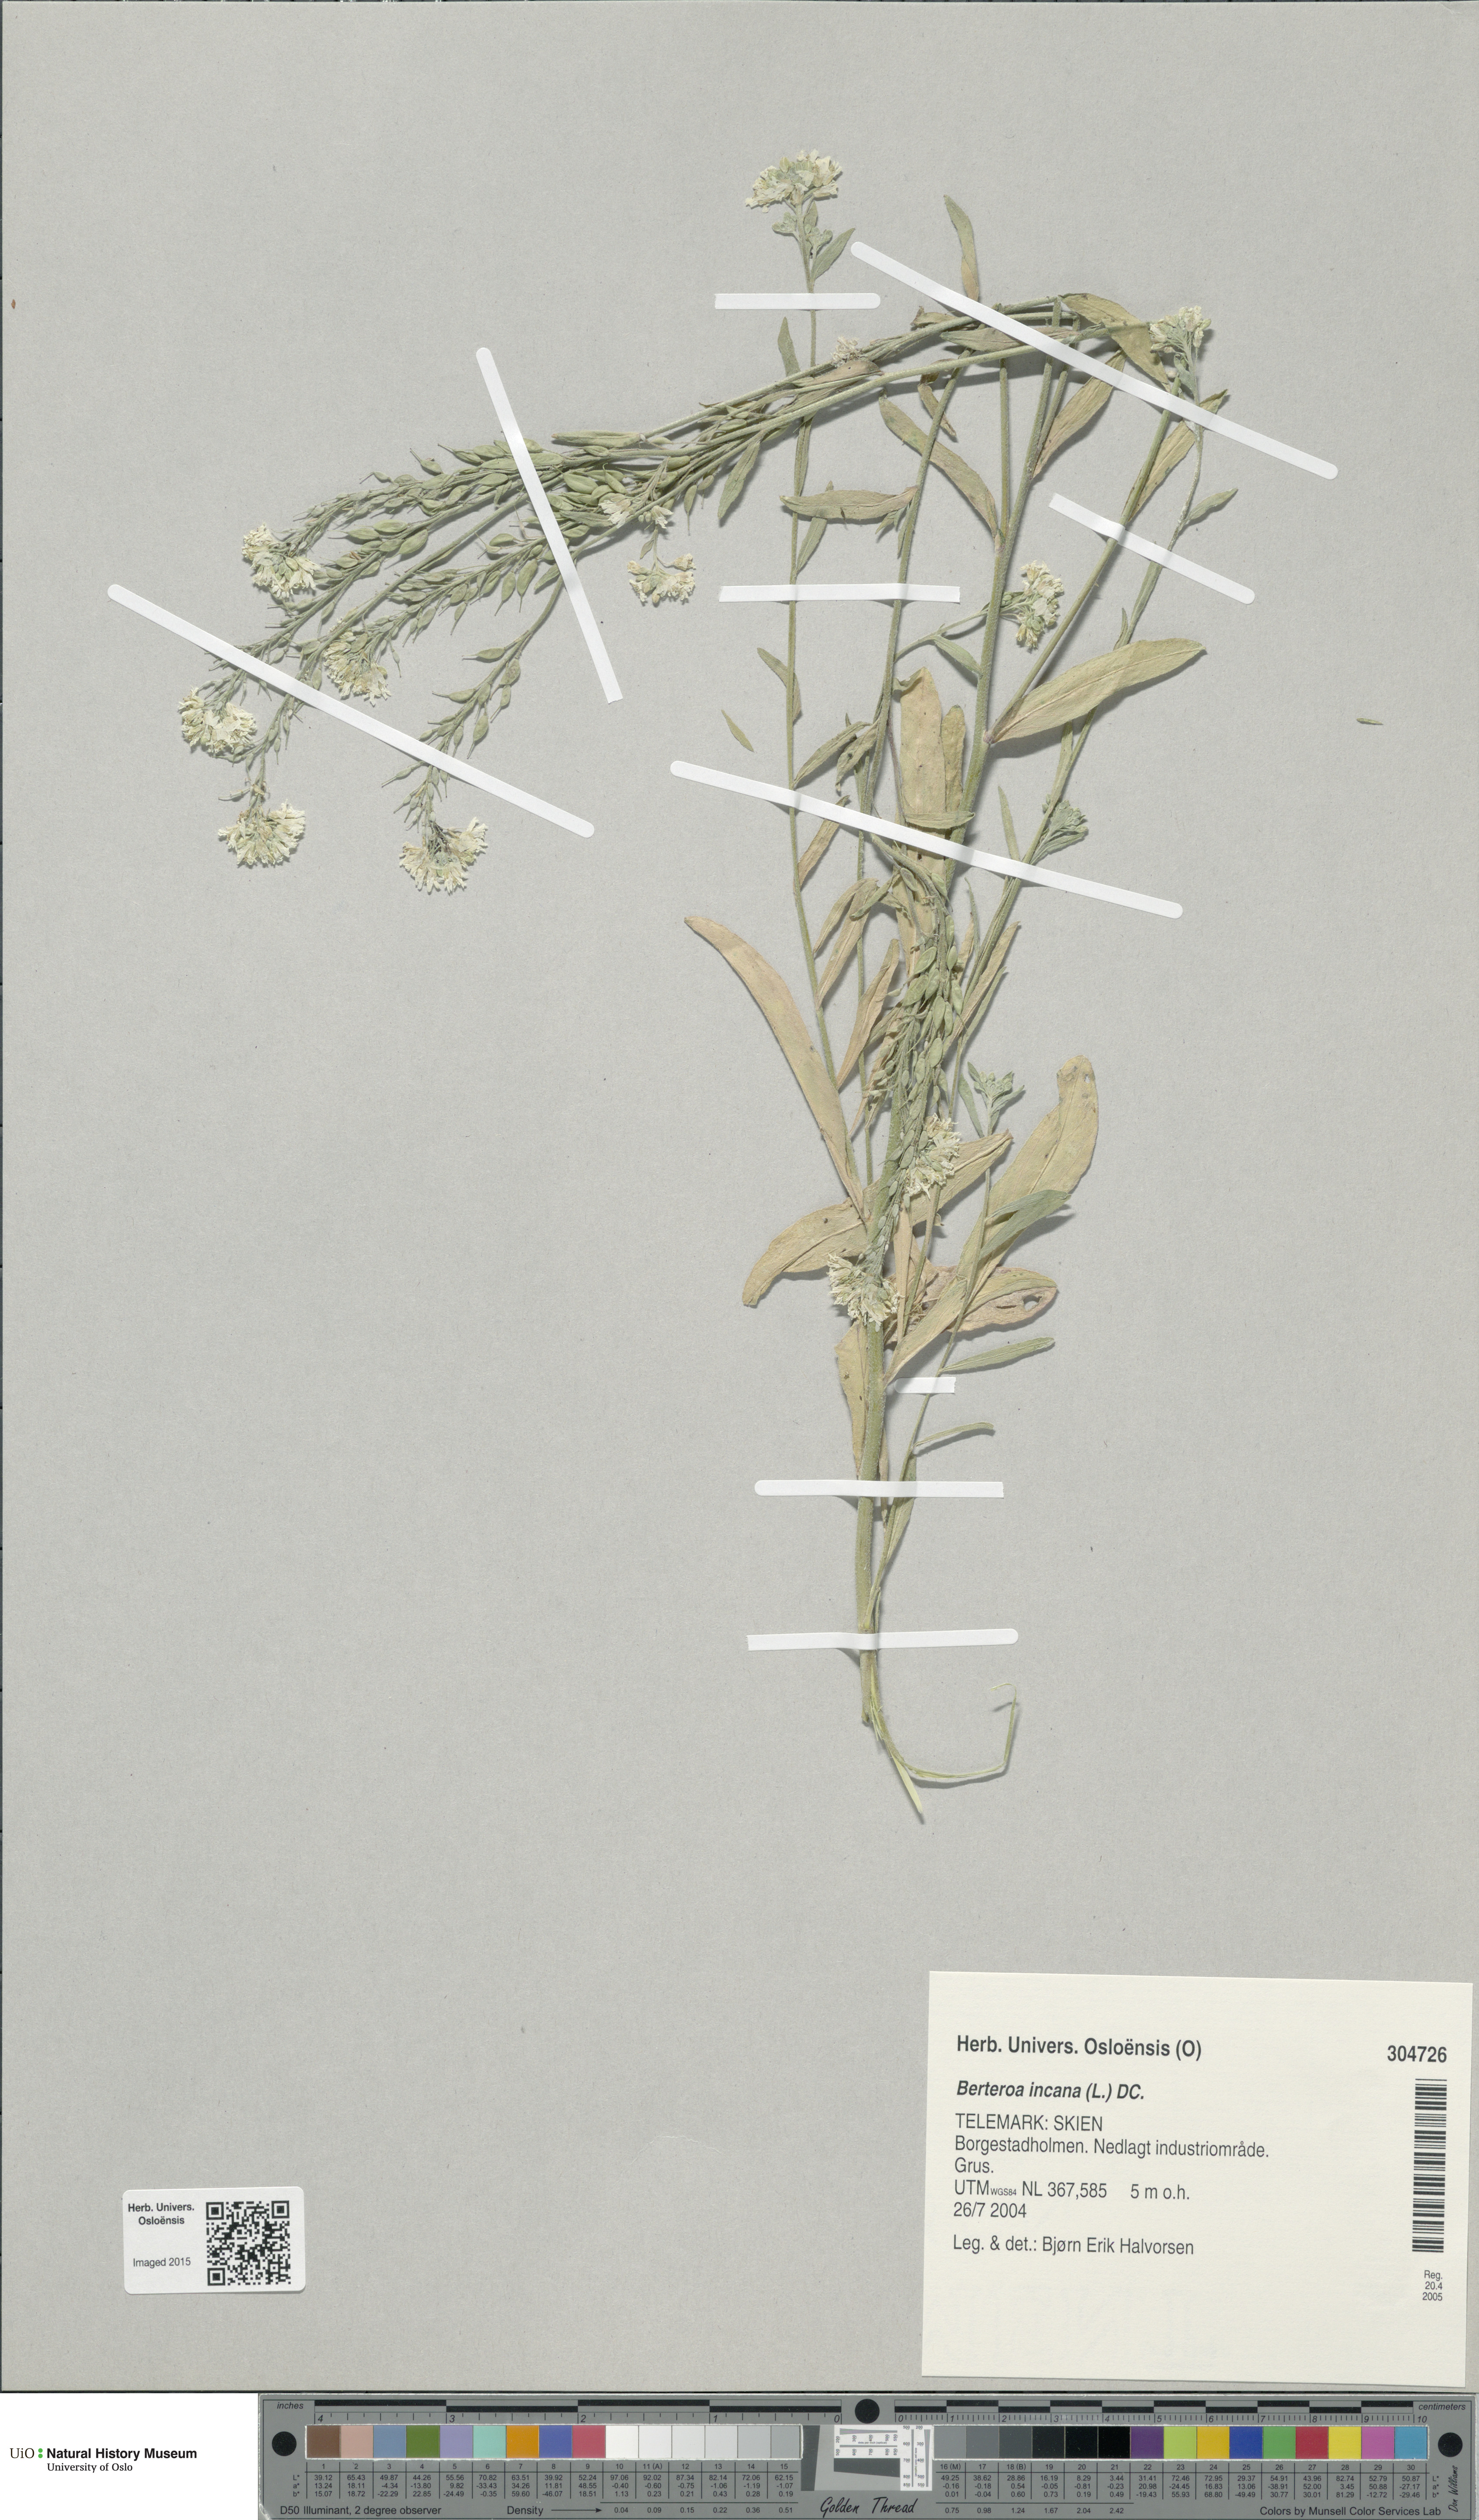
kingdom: Plantae
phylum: Tracheophyta
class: Magnoliopsida
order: Brassicales
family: Brassicaceae
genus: Berteroa
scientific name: Berteroa incana
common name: Hoary alison
